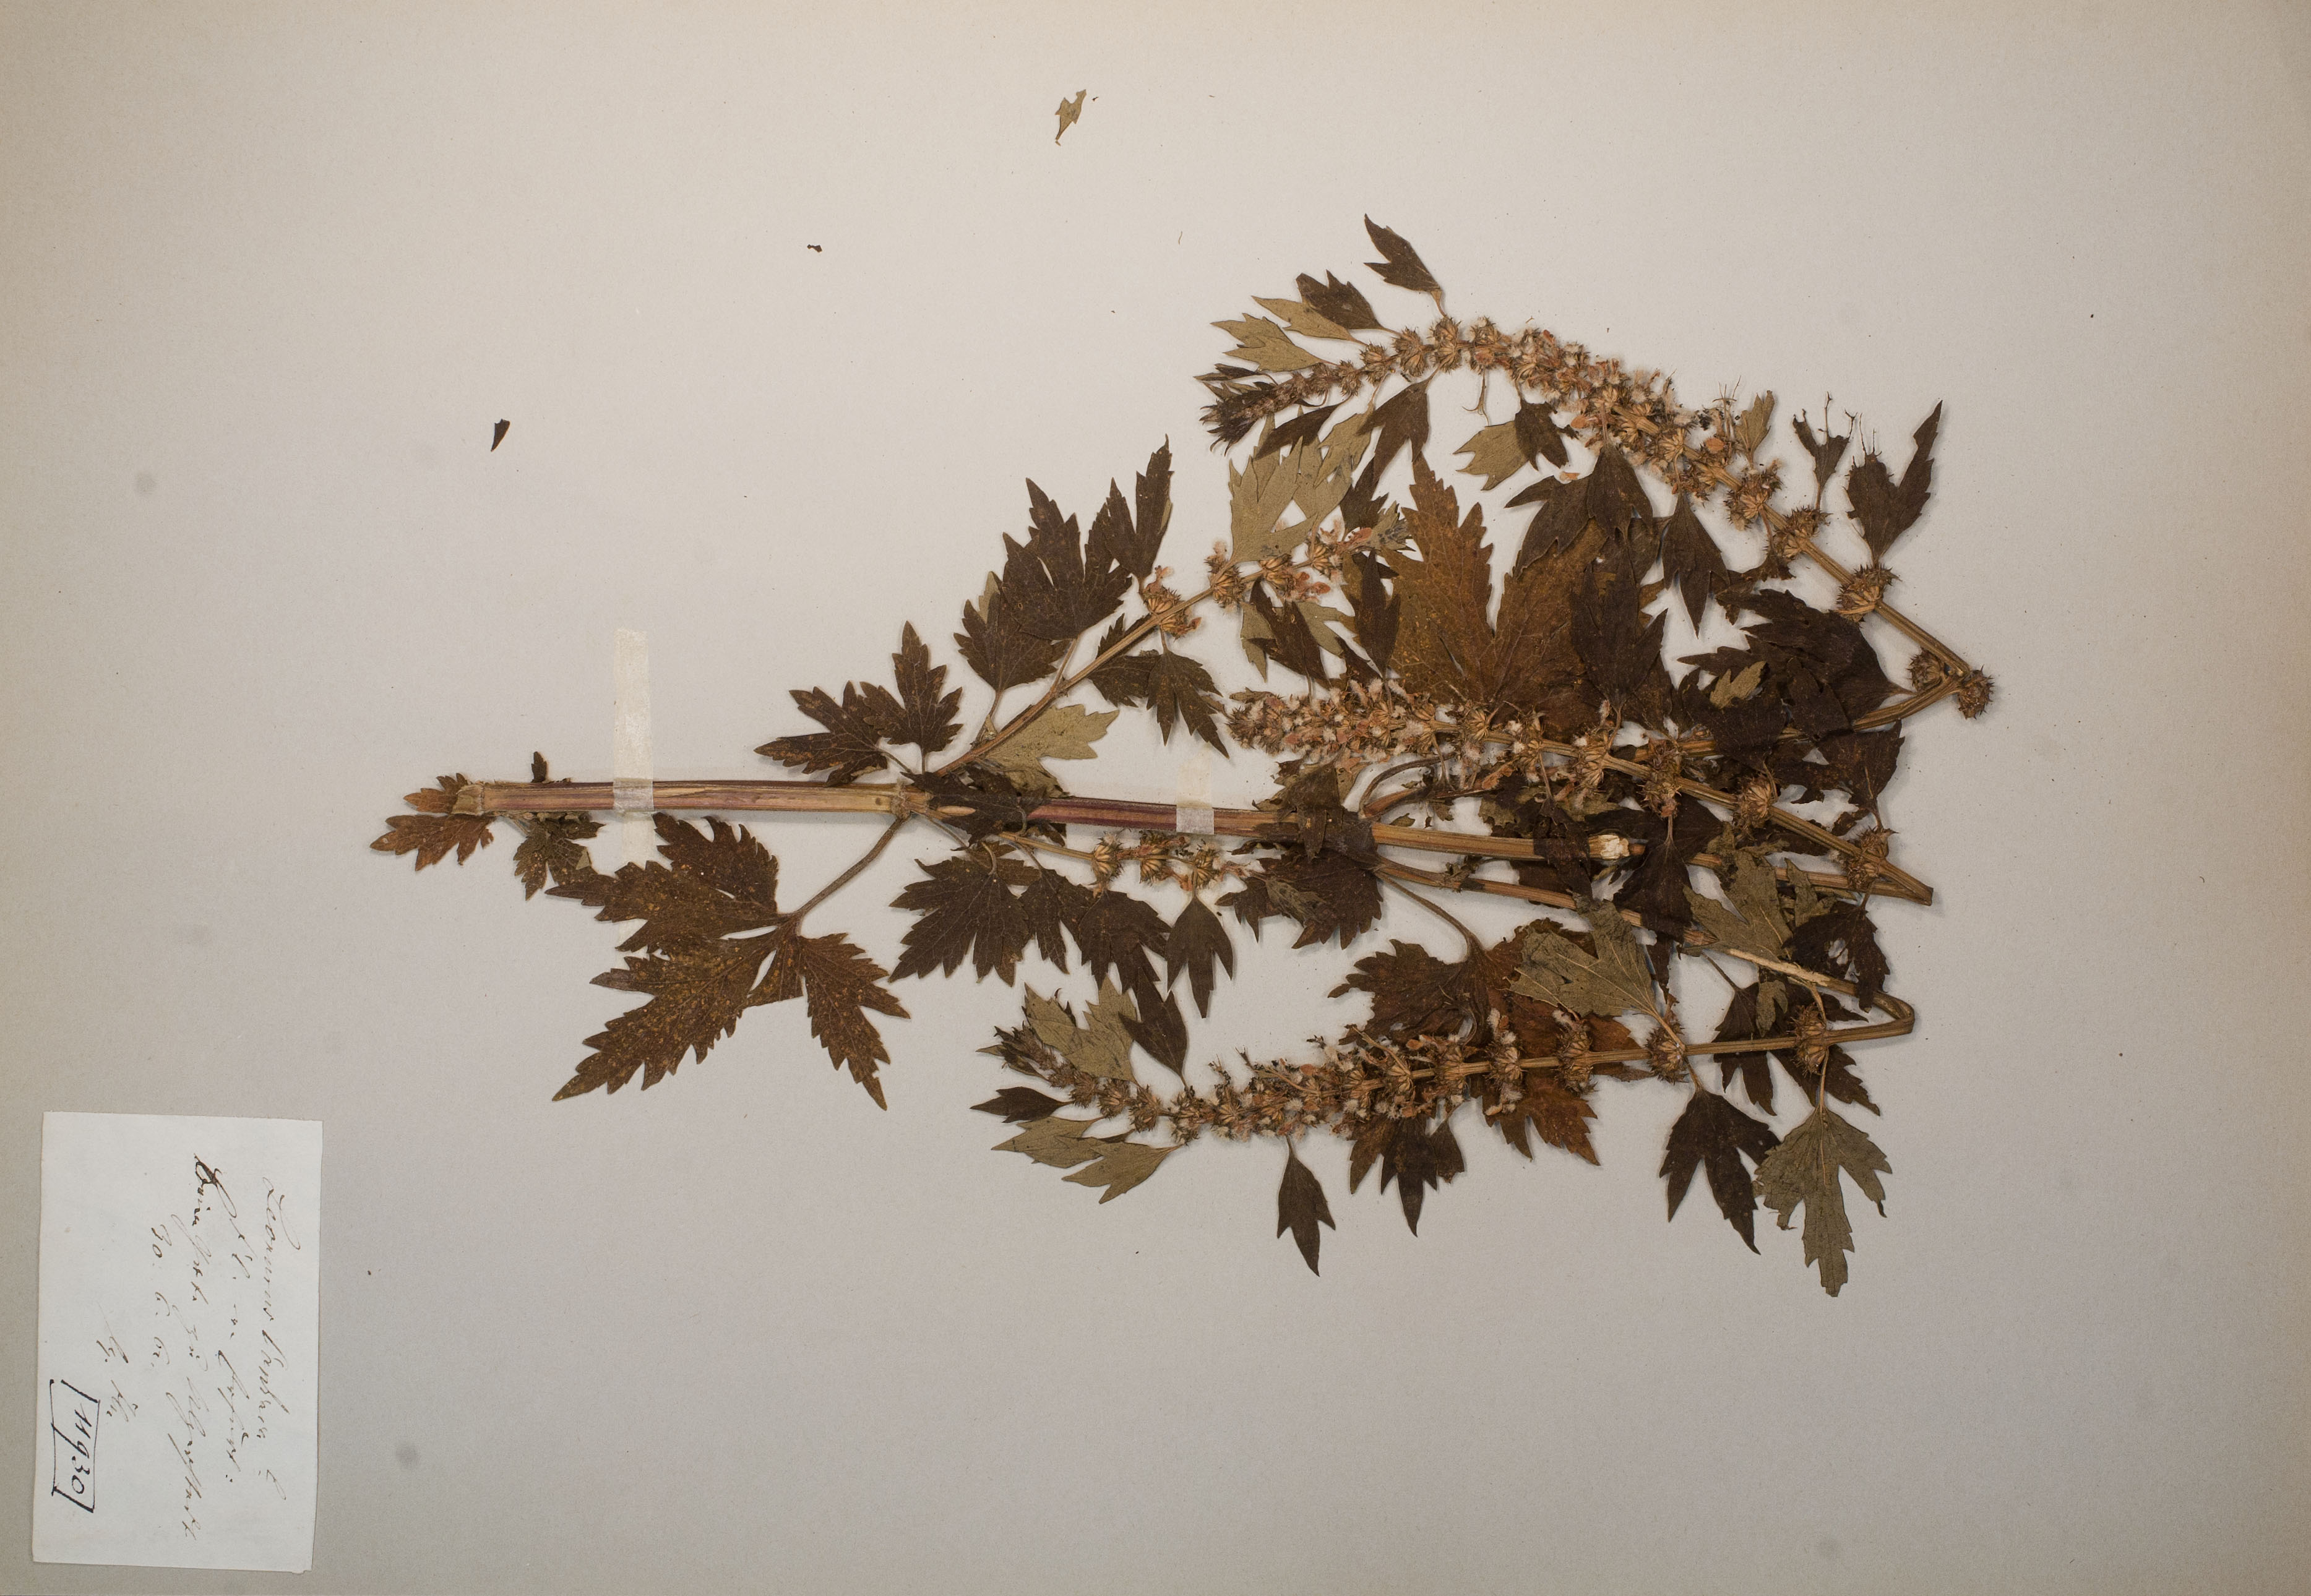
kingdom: Plantae
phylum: Tracheophyta
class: Magnoliopsida
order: Lamiales
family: Lamiaceae
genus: Leonurus
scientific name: Leonurus cardiaca
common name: Motherwort
